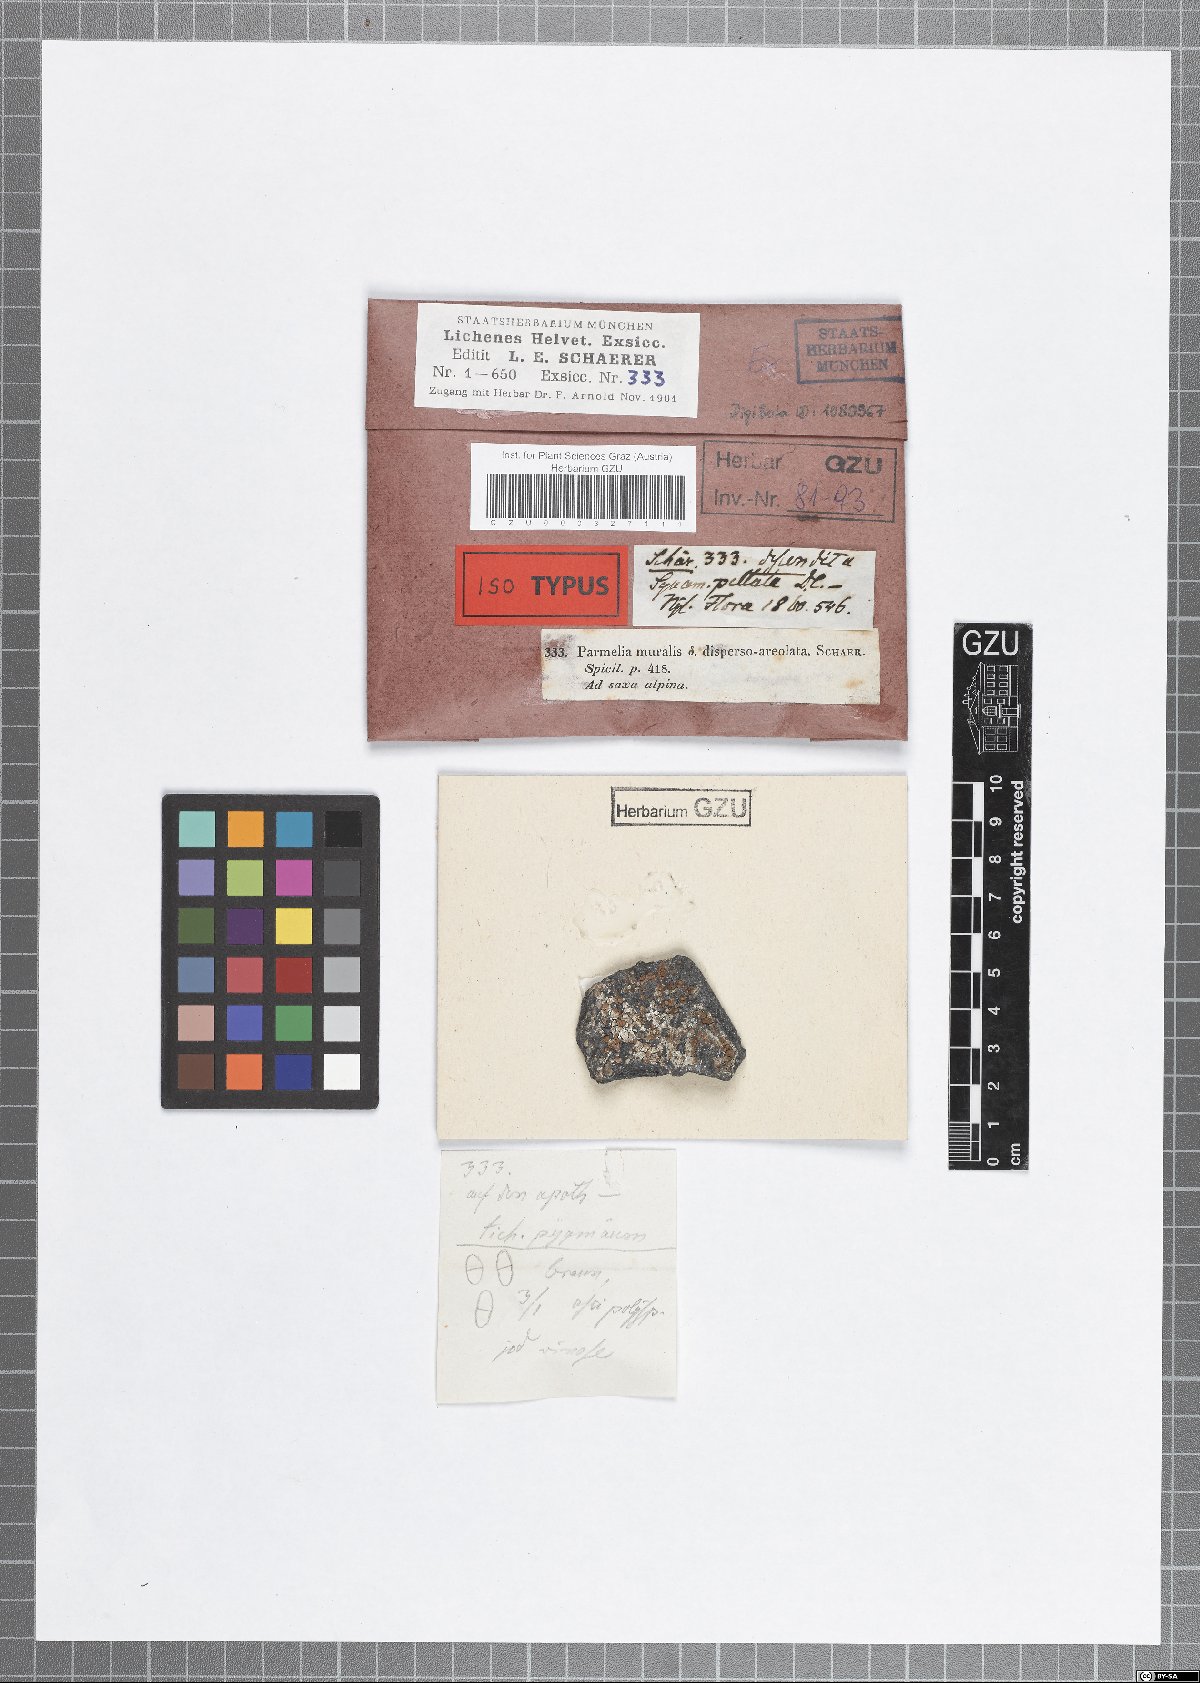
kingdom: Fungi
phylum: Ascomycota
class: Lecanoromycetes
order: Lecanorales
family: Lecanoraceae
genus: Lecanora
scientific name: Lecanora dispersoareolata
